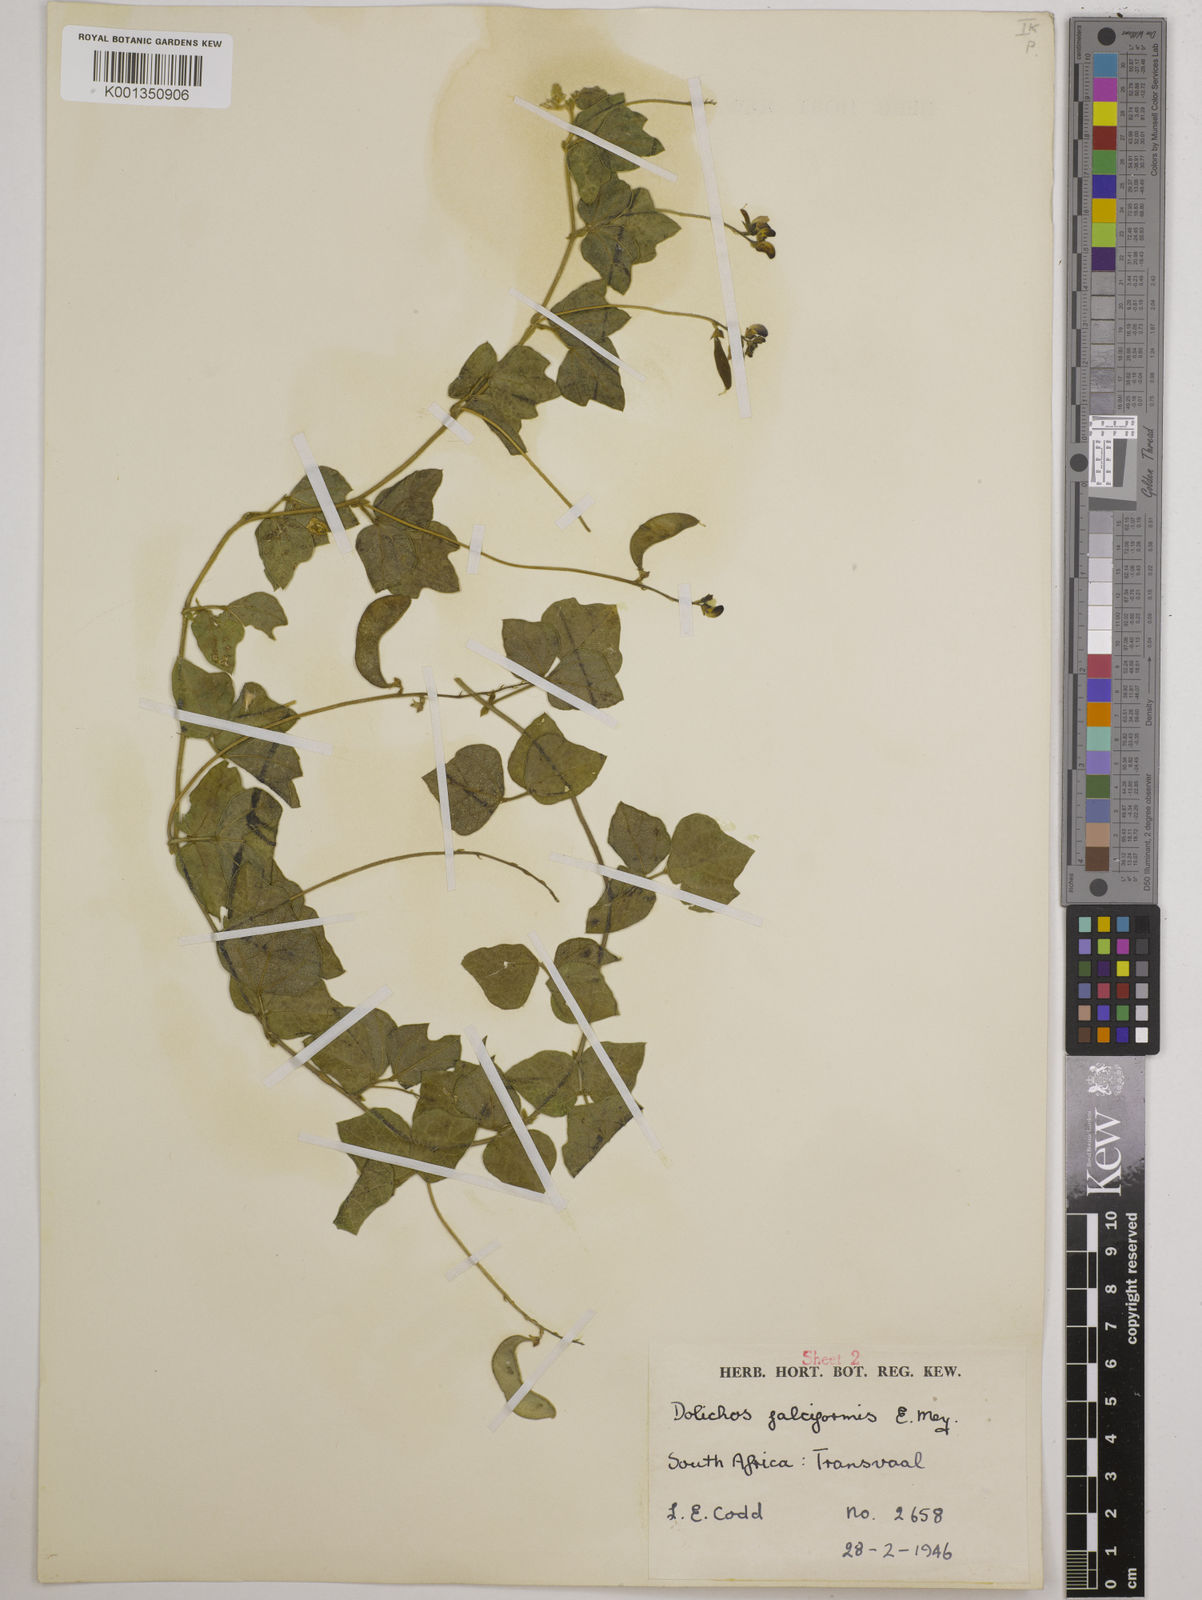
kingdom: Plantae
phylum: Tracheophyta
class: Magnoliopsida
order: Fabales
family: Fabaceae
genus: Dolichos
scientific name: Dolichos falciformis
